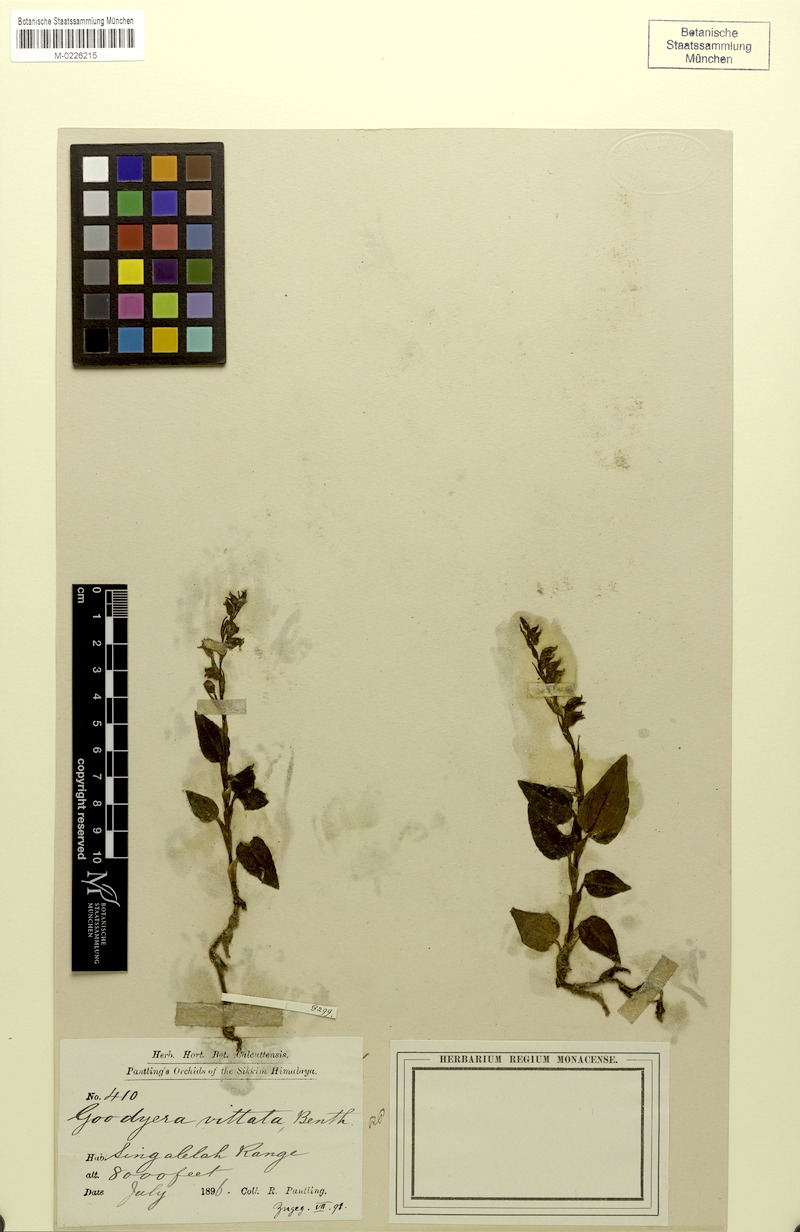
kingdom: Plantae
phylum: Tracheophyta
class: Liliopsida
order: Asparagales
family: Orchidaceae
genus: Goodyera
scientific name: Goodyera vittata
